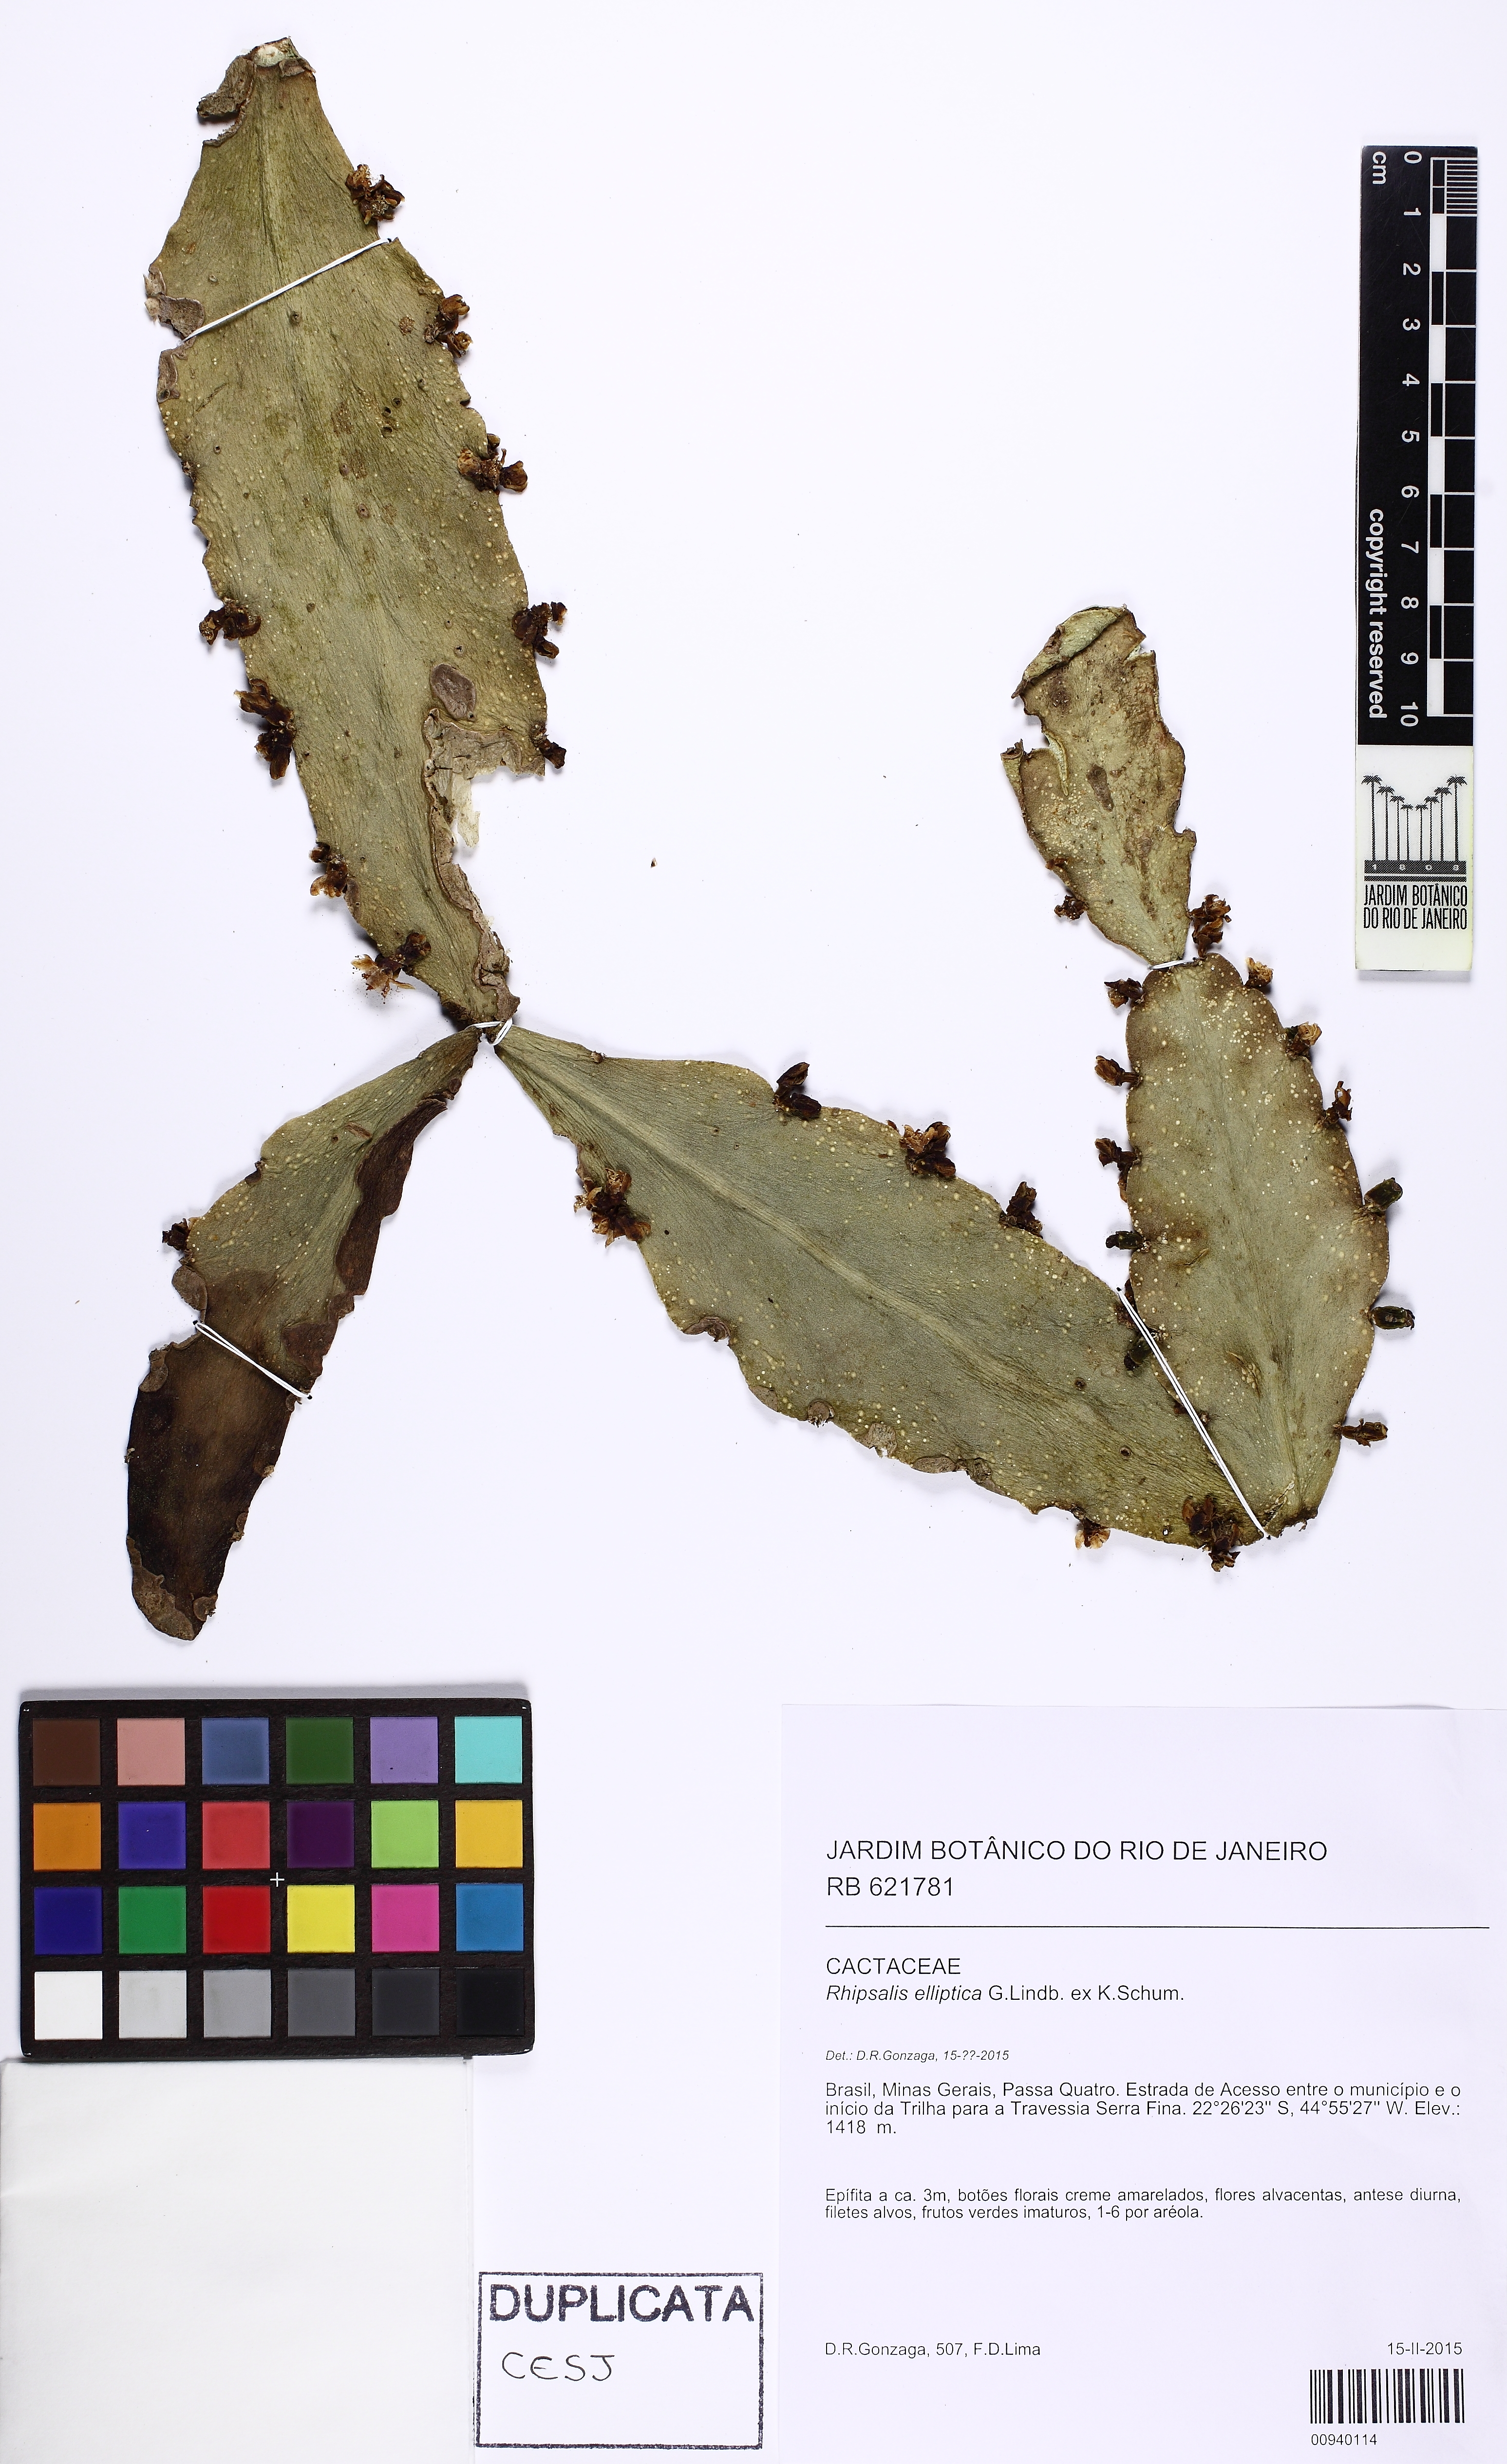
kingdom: Plantae
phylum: Tracheophyta
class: Magnoliopsida
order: Caryophyllales
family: Cactaceae
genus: Rhipsalis
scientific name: Rhipsalis elliptica
